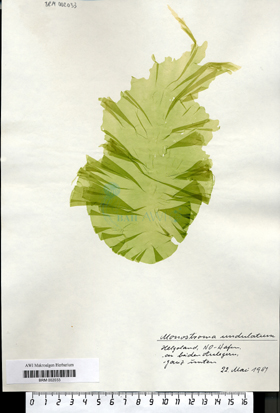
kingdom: Plantae
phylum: Chlorophyta
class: Ulvophyceae
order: Ulvales
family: Gayraliaceae
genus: Protomonostroma
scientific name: Protomonostroma undulatum
